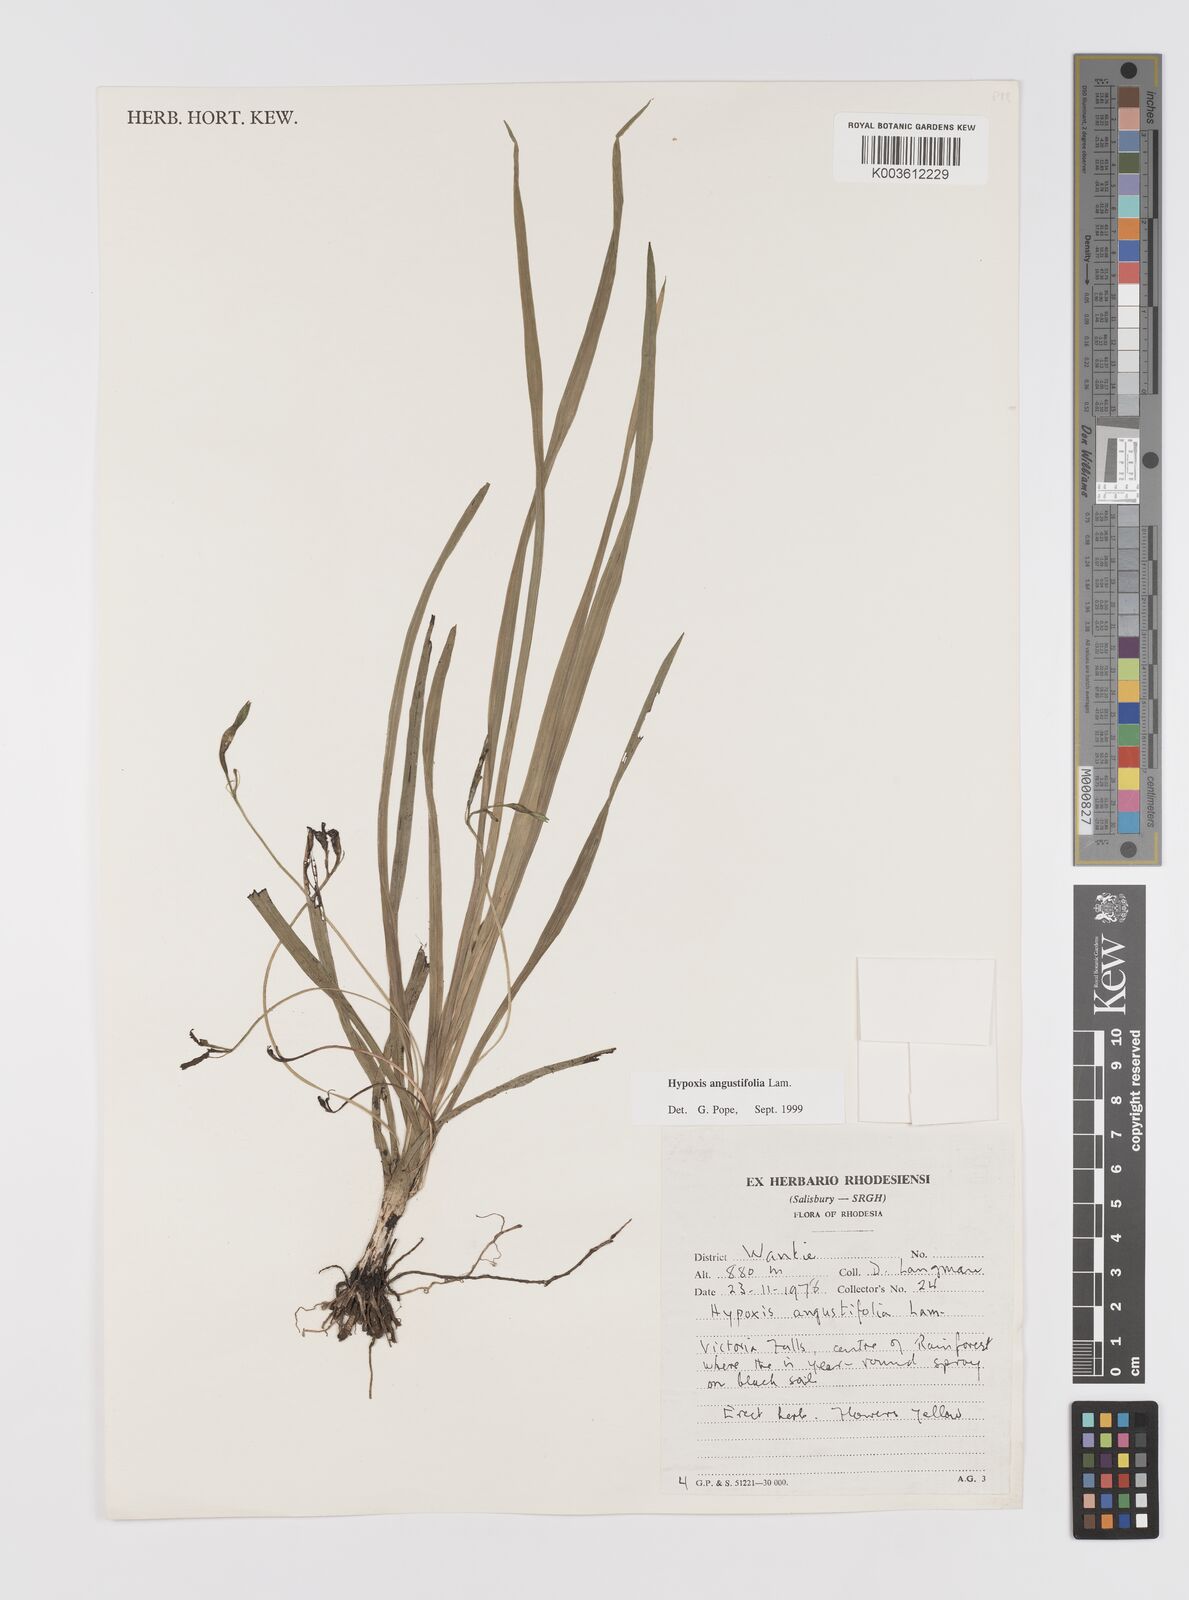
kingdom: Plantae
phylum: Tracheophyta
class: Liliopsida
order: Asparagales
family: Hypoxidaceae
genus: Hypoxis
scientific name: Hypoxis angustifolia
